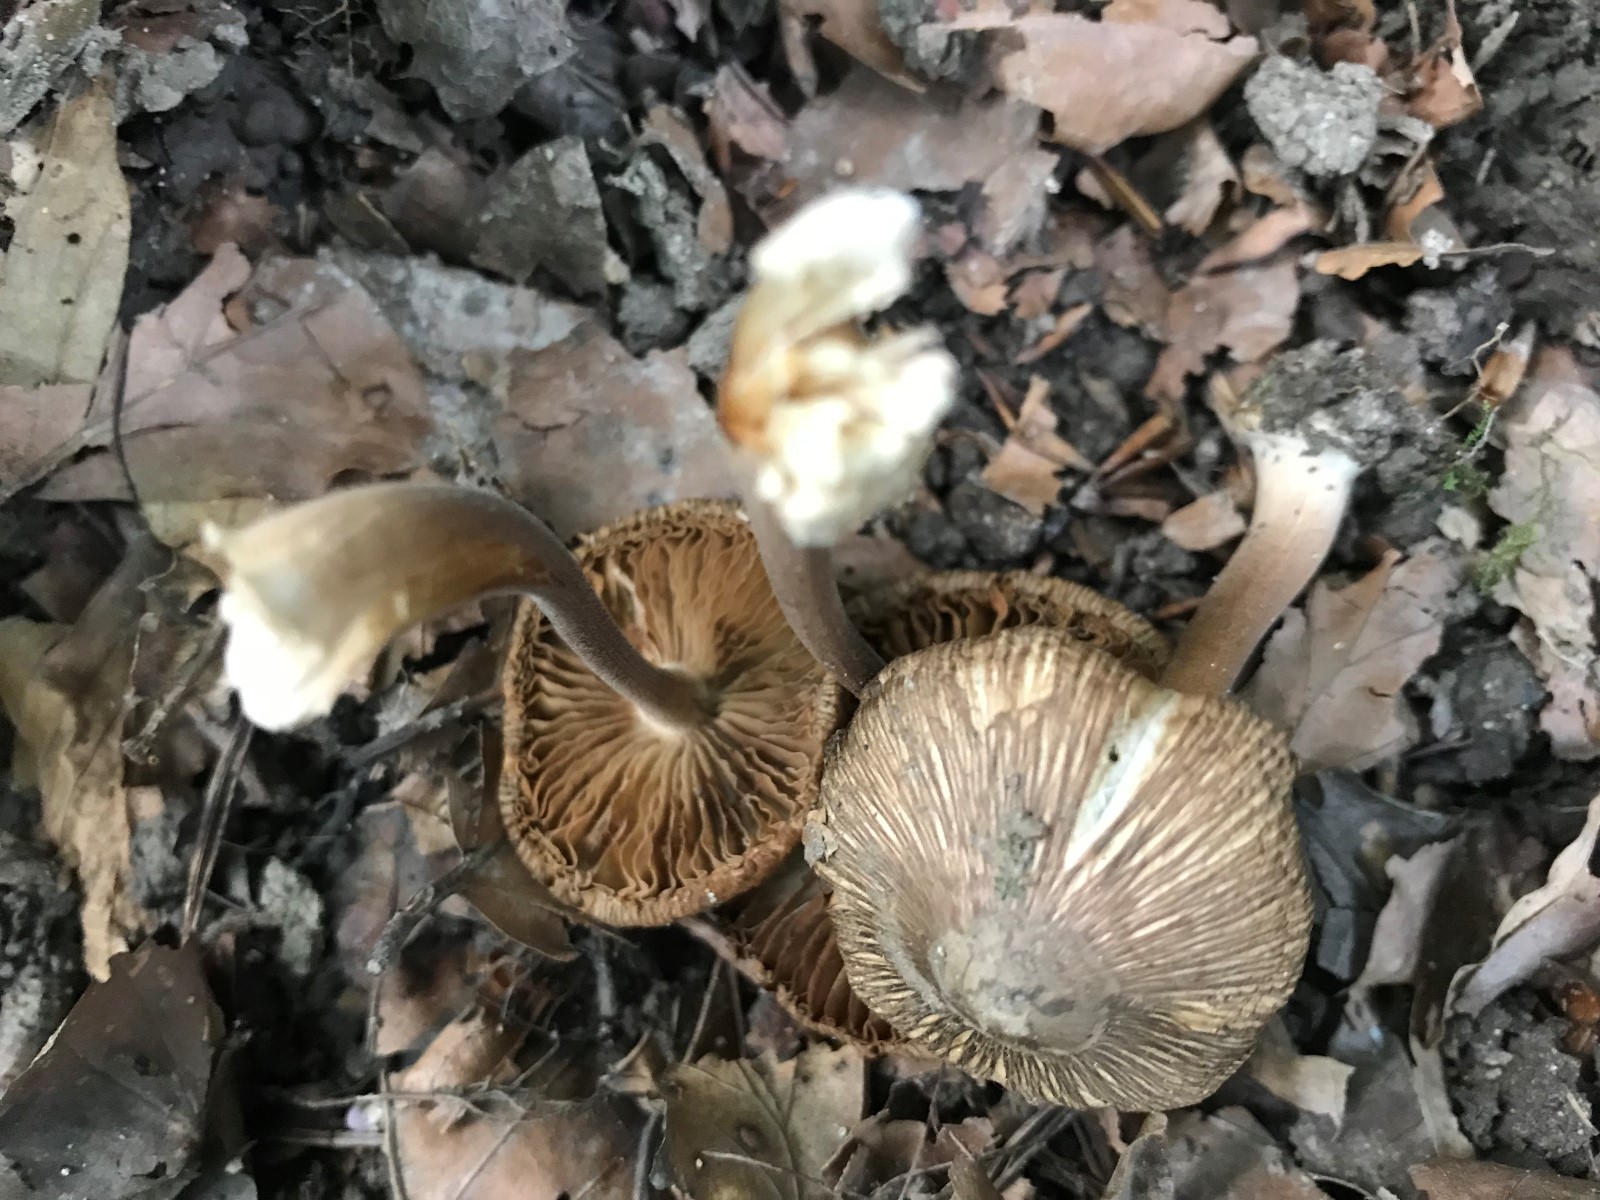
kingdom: Fungi
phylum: Basidiomycota
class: Agaricomycetes
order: Agaricales
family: Inocybaceae
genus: Inocybe
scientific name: Inocybe asterospora
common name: stjernesporet trævlhat
